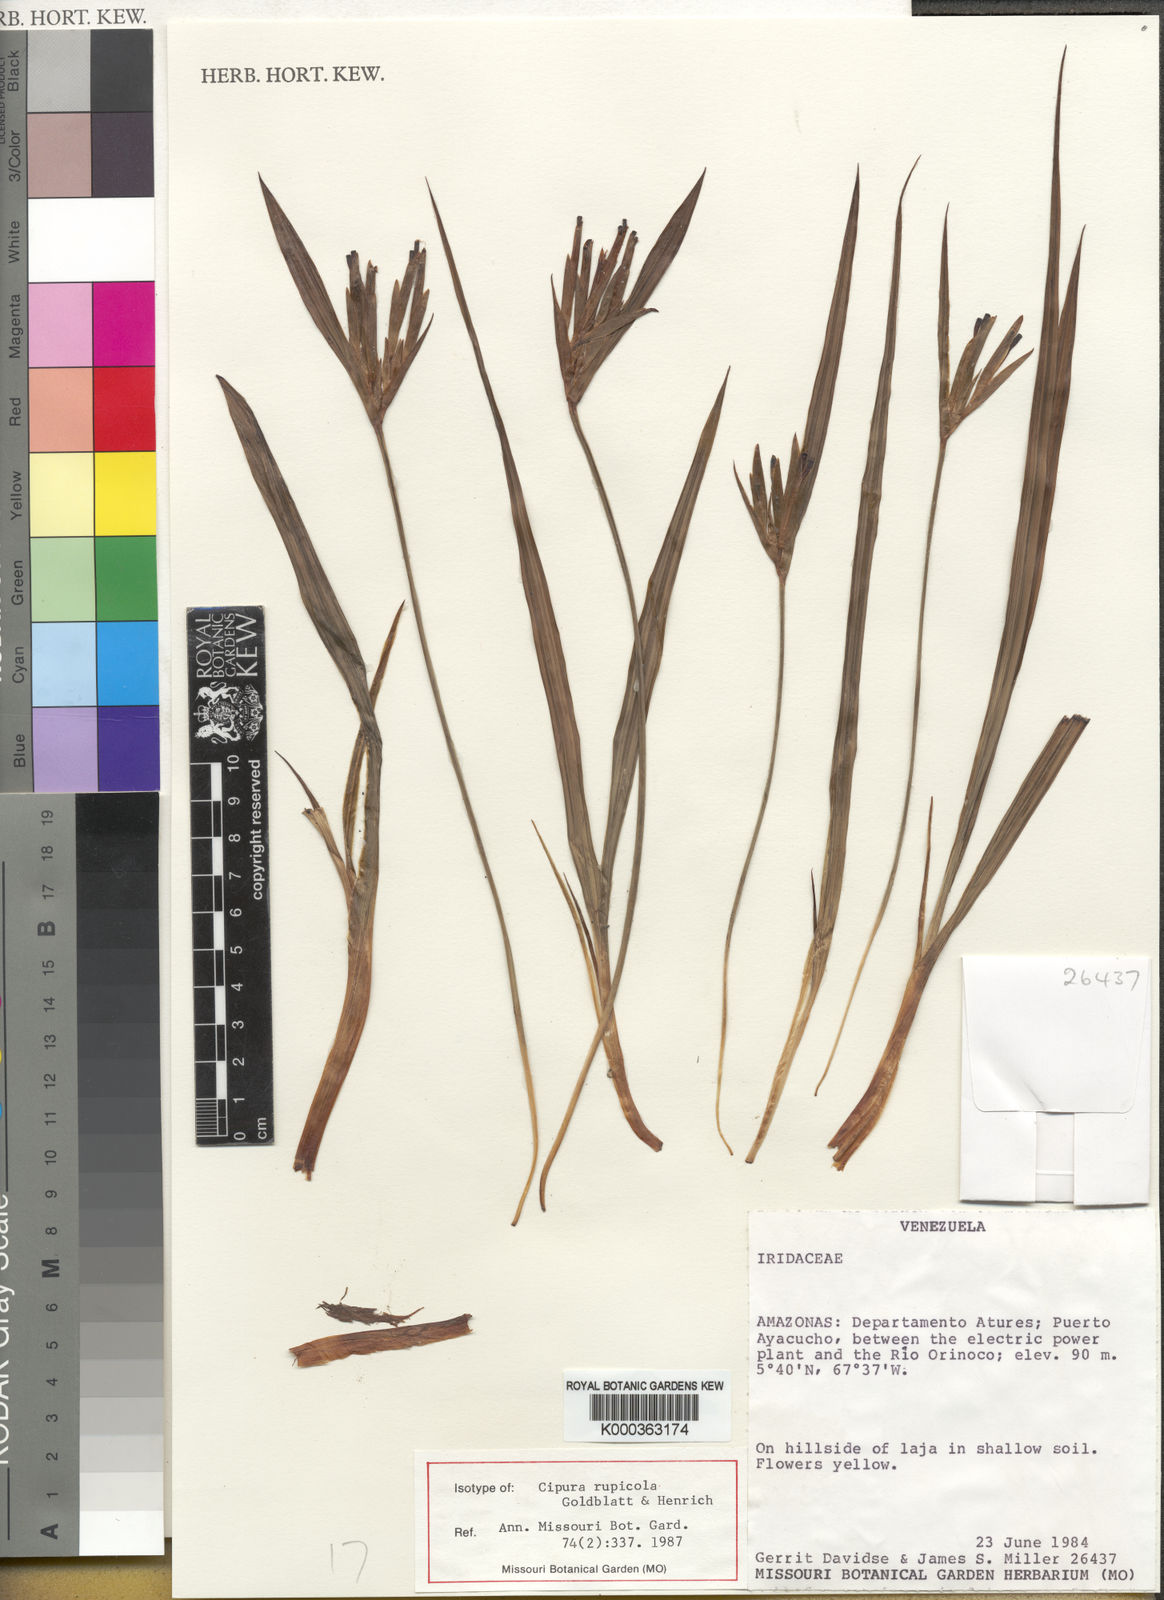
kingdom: Plantae
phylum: Tracheophyta
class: Liliopsida
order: Asparagales
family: Iridaceae
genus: Cipura
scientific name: Cipura rupicola
